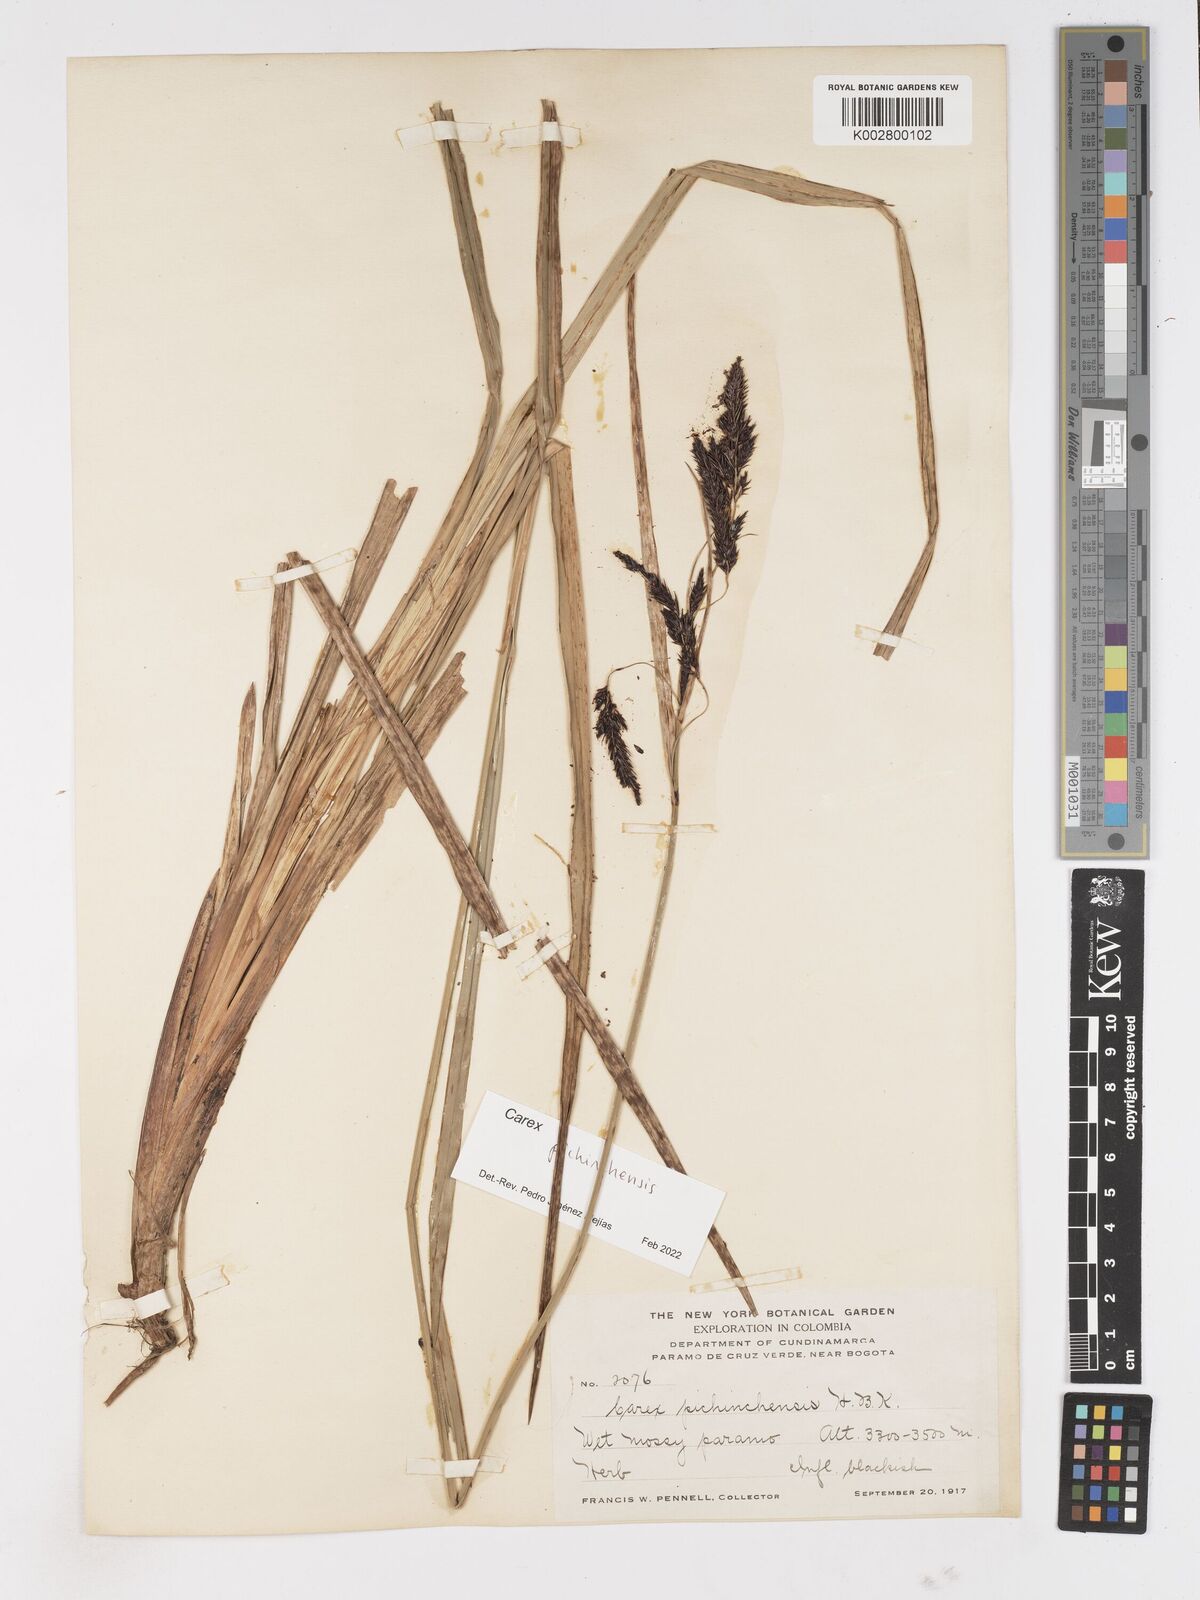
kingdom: Plantae
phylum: Tracheophyta
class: Liliopsida
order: Poales
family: Cyperaceae
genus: Carex
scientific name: Carex pichinchensis
